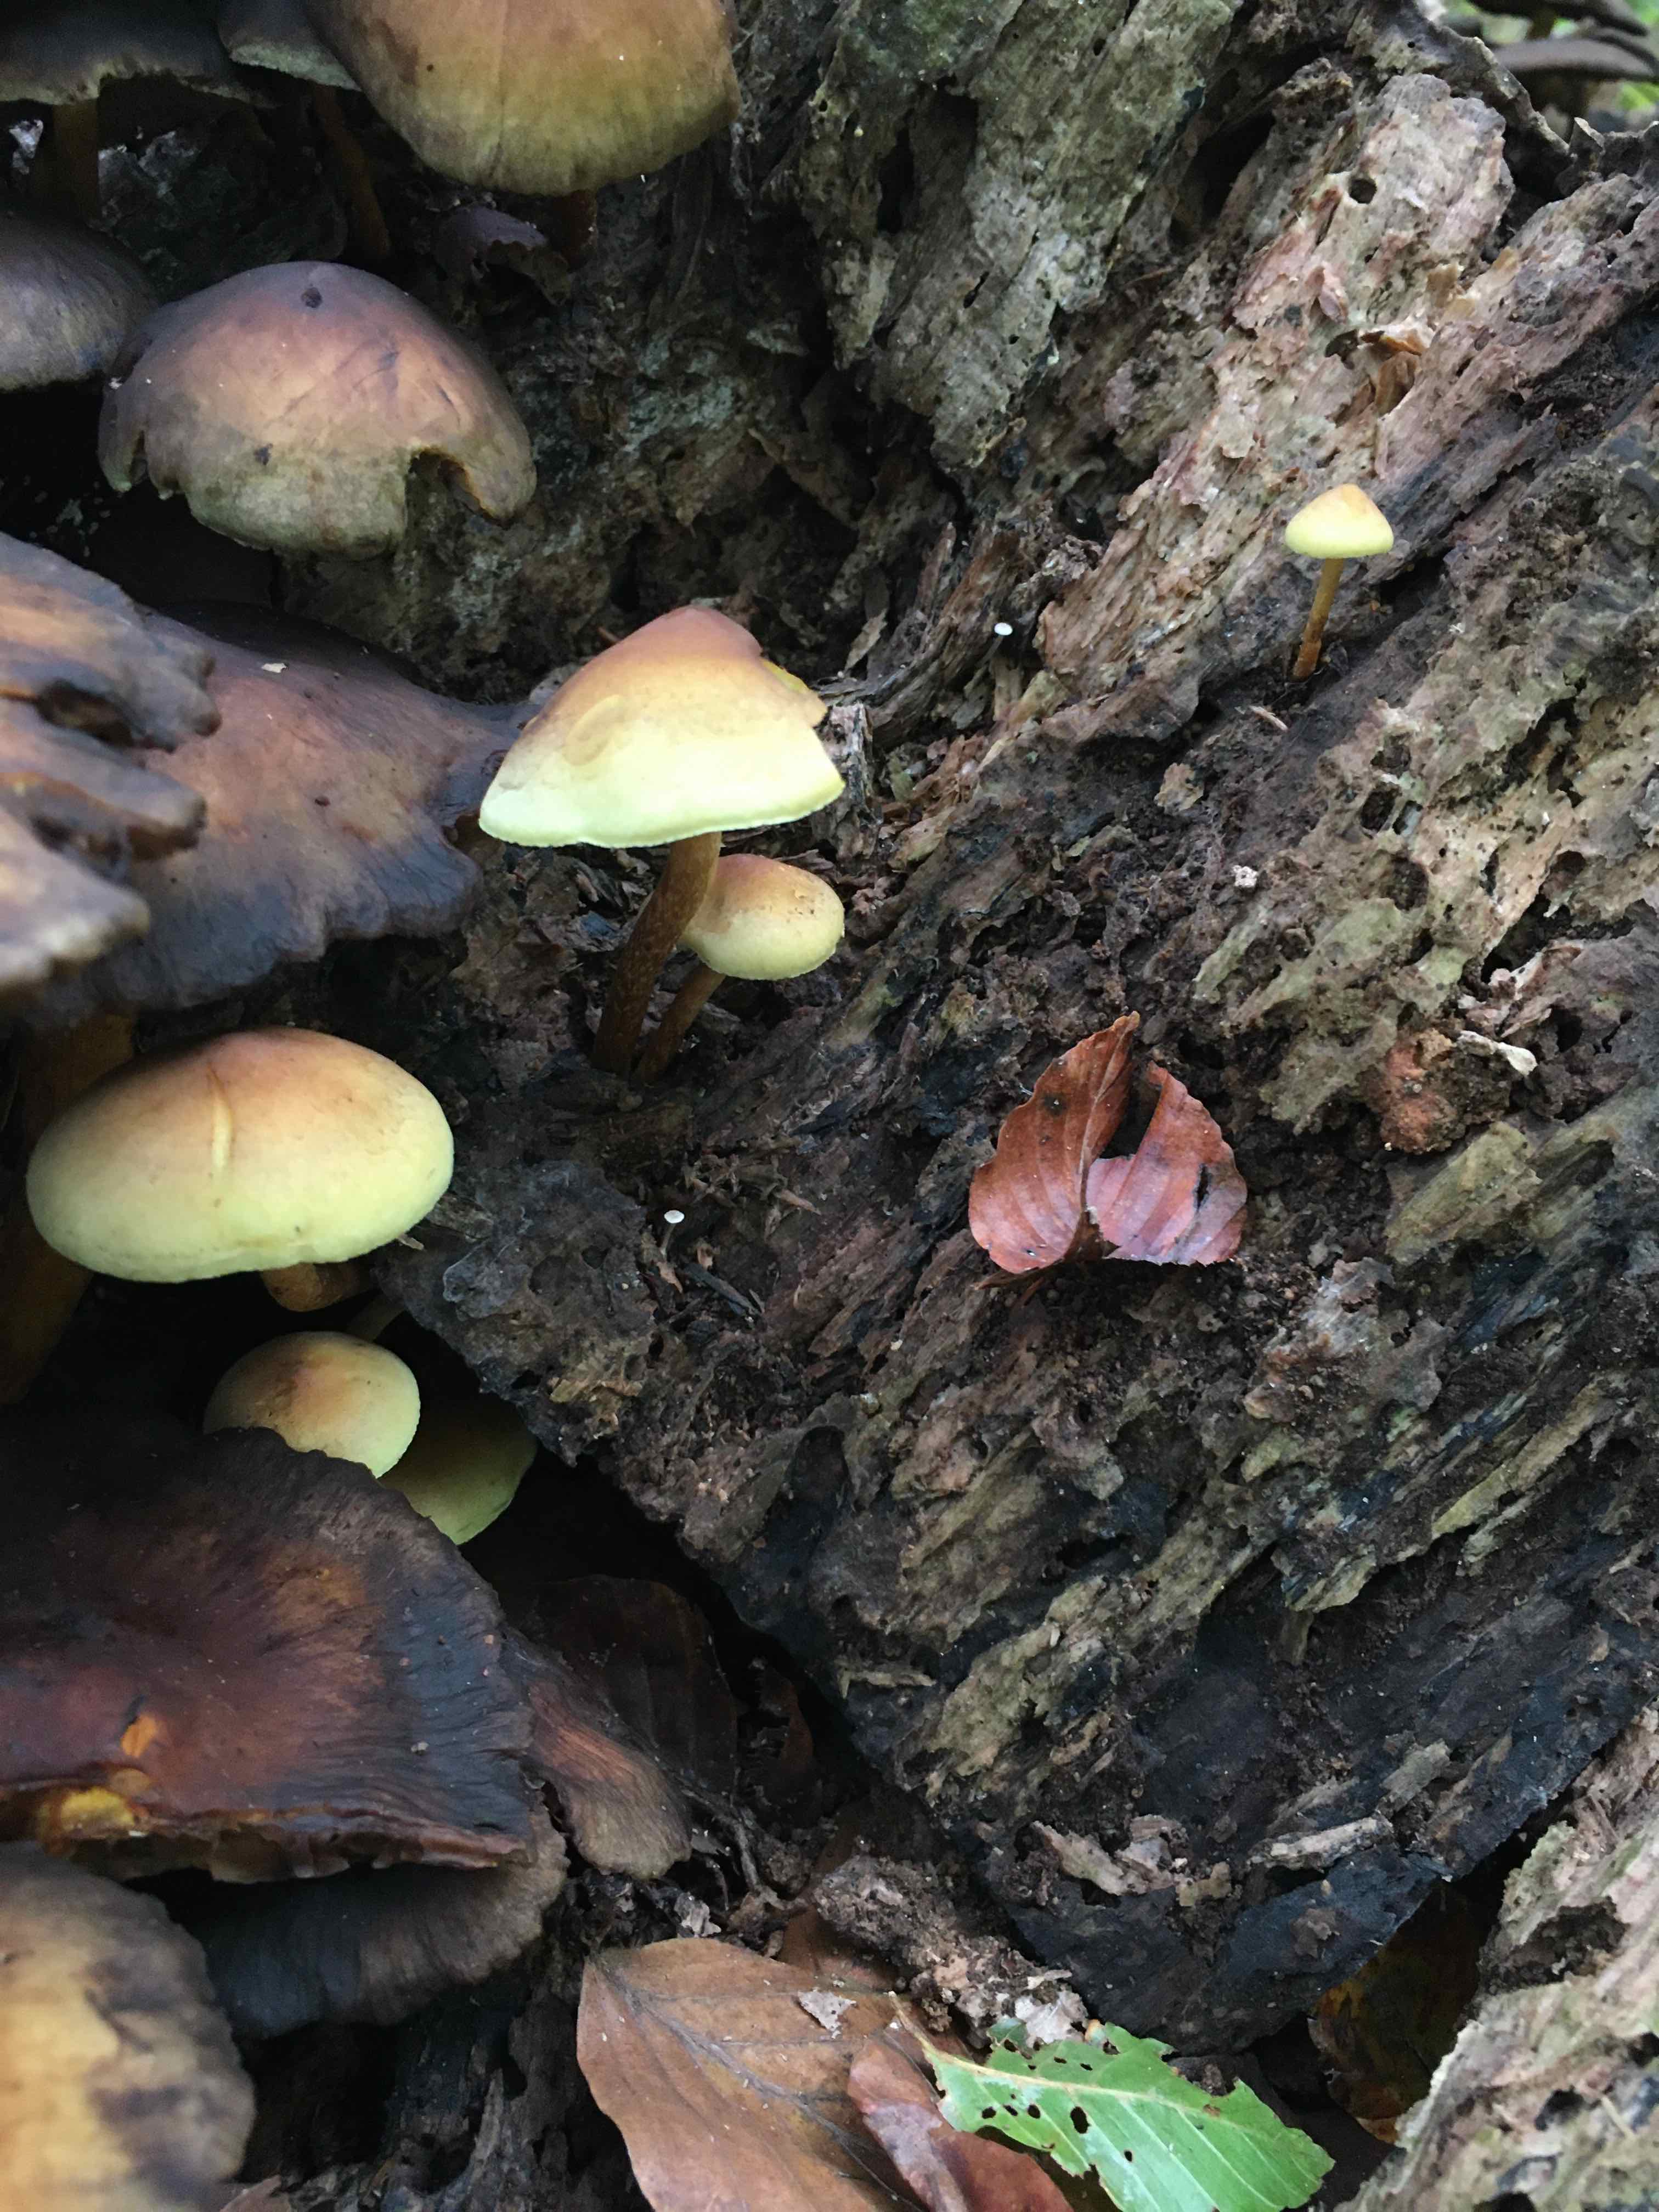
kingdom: Fungi
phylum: Basidiomycota
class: Agaricomycetes
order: Agaricales
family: Strophariaceae
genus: Hypholoma
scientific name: Hypholoma fasciculare
